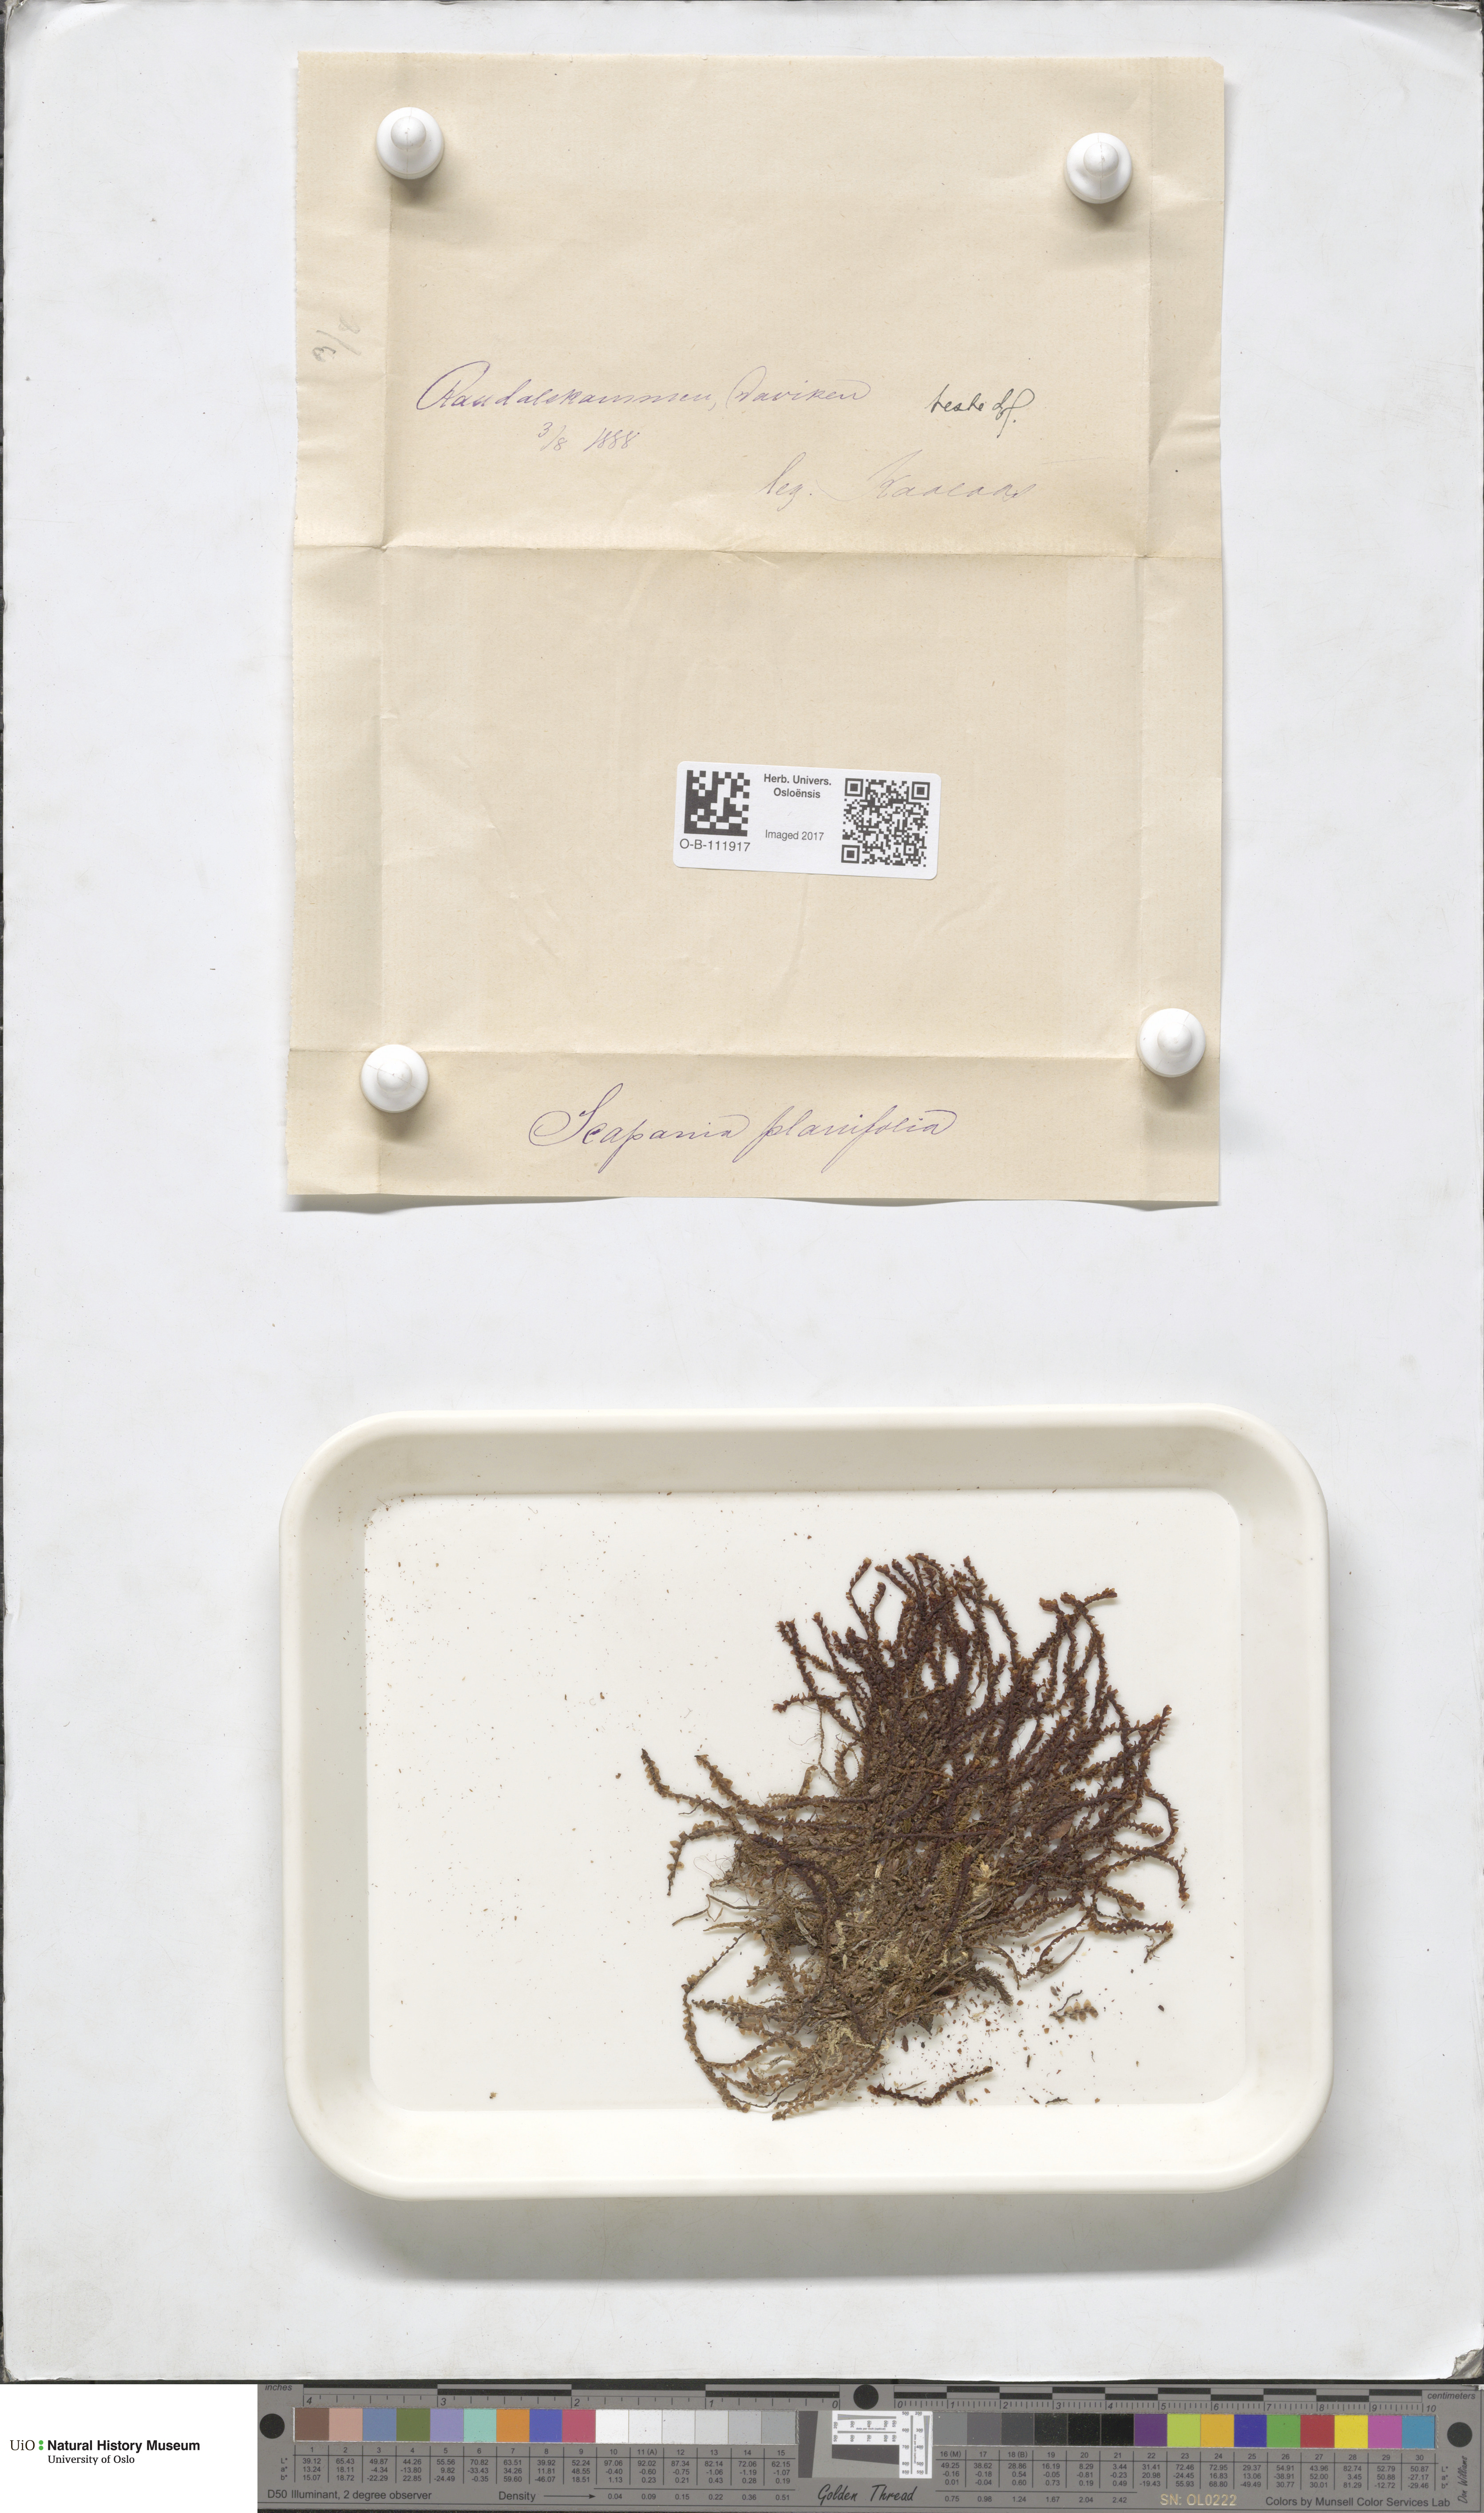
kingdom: Plantae
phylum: Marchantiophyta
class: Jungermanniopsida
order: Jungermanniales
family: Scapaniaceae
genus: Scapania
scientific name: Scapania ornithopodioides
